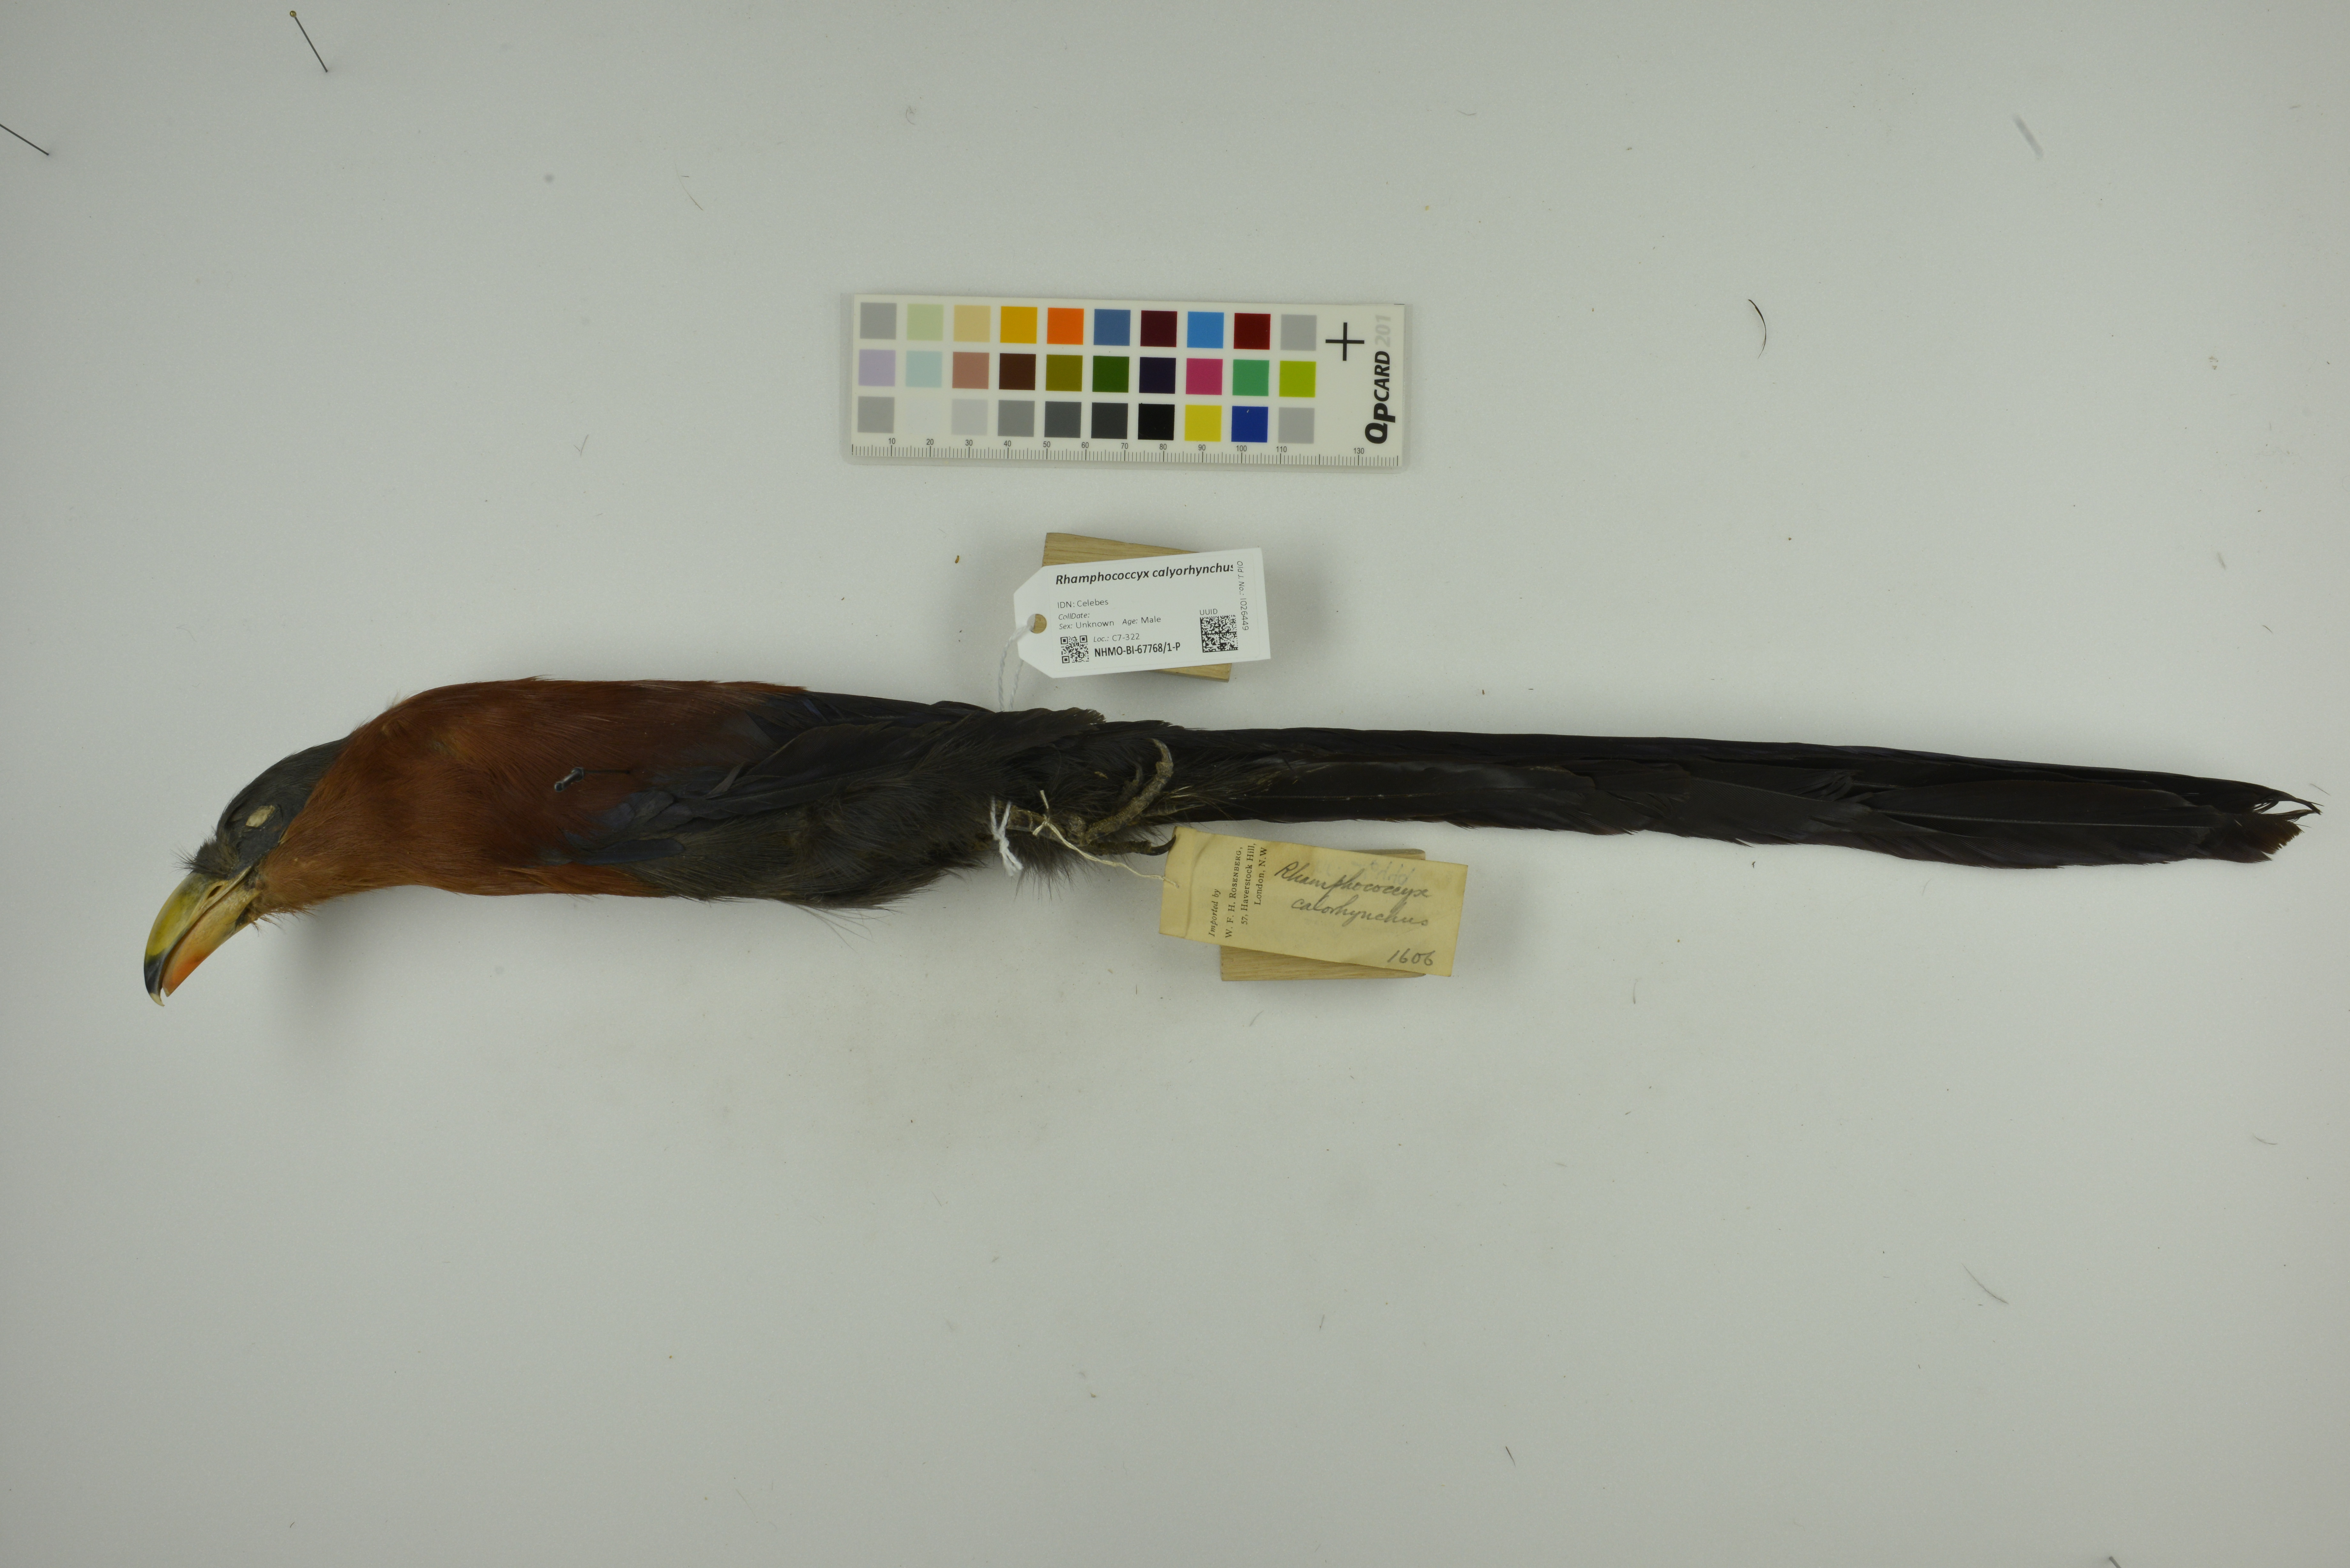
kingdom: Animalia
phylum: Chordata
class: Aves
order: Cuculiformes
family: Cuculidae
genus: Zanclostomus
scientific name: Zanclostomus calyorhynchus
